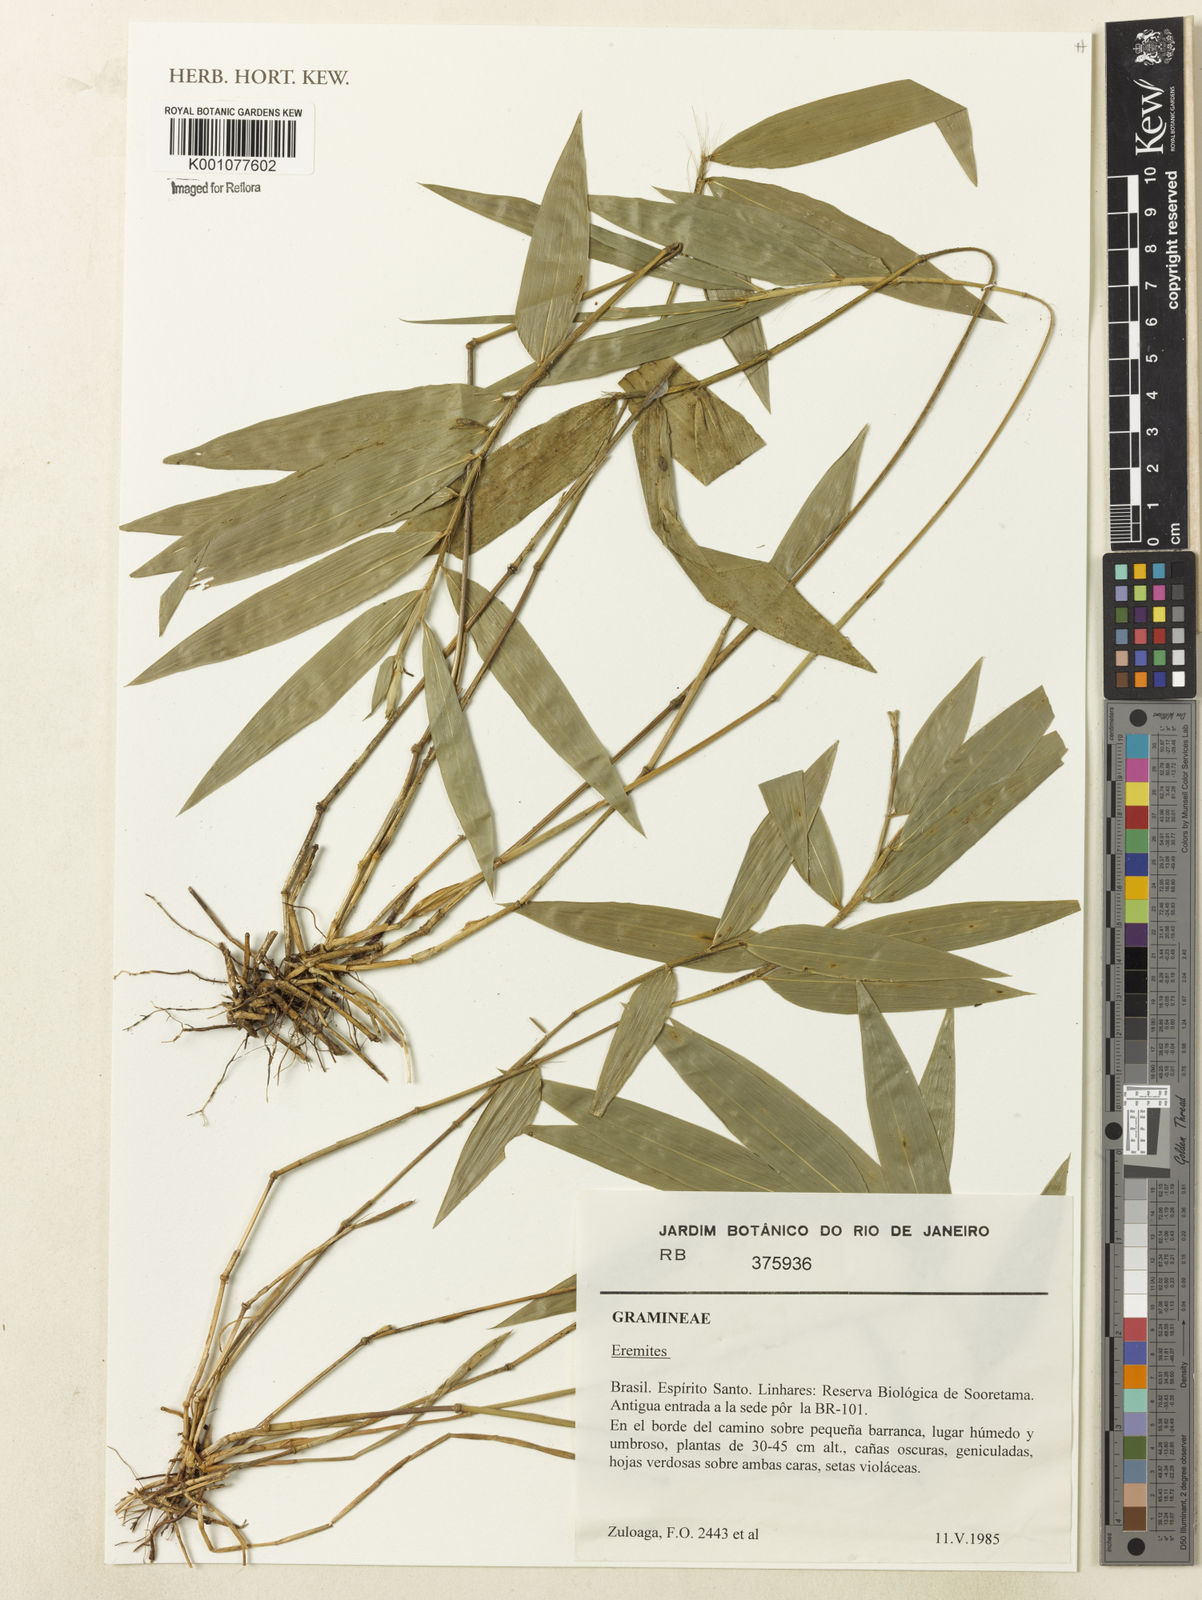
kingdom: Plantae
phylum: Tracheophyta
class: Liliopsida
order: Poales
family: Poaceae
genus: Eremitis
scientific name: Eremitis
